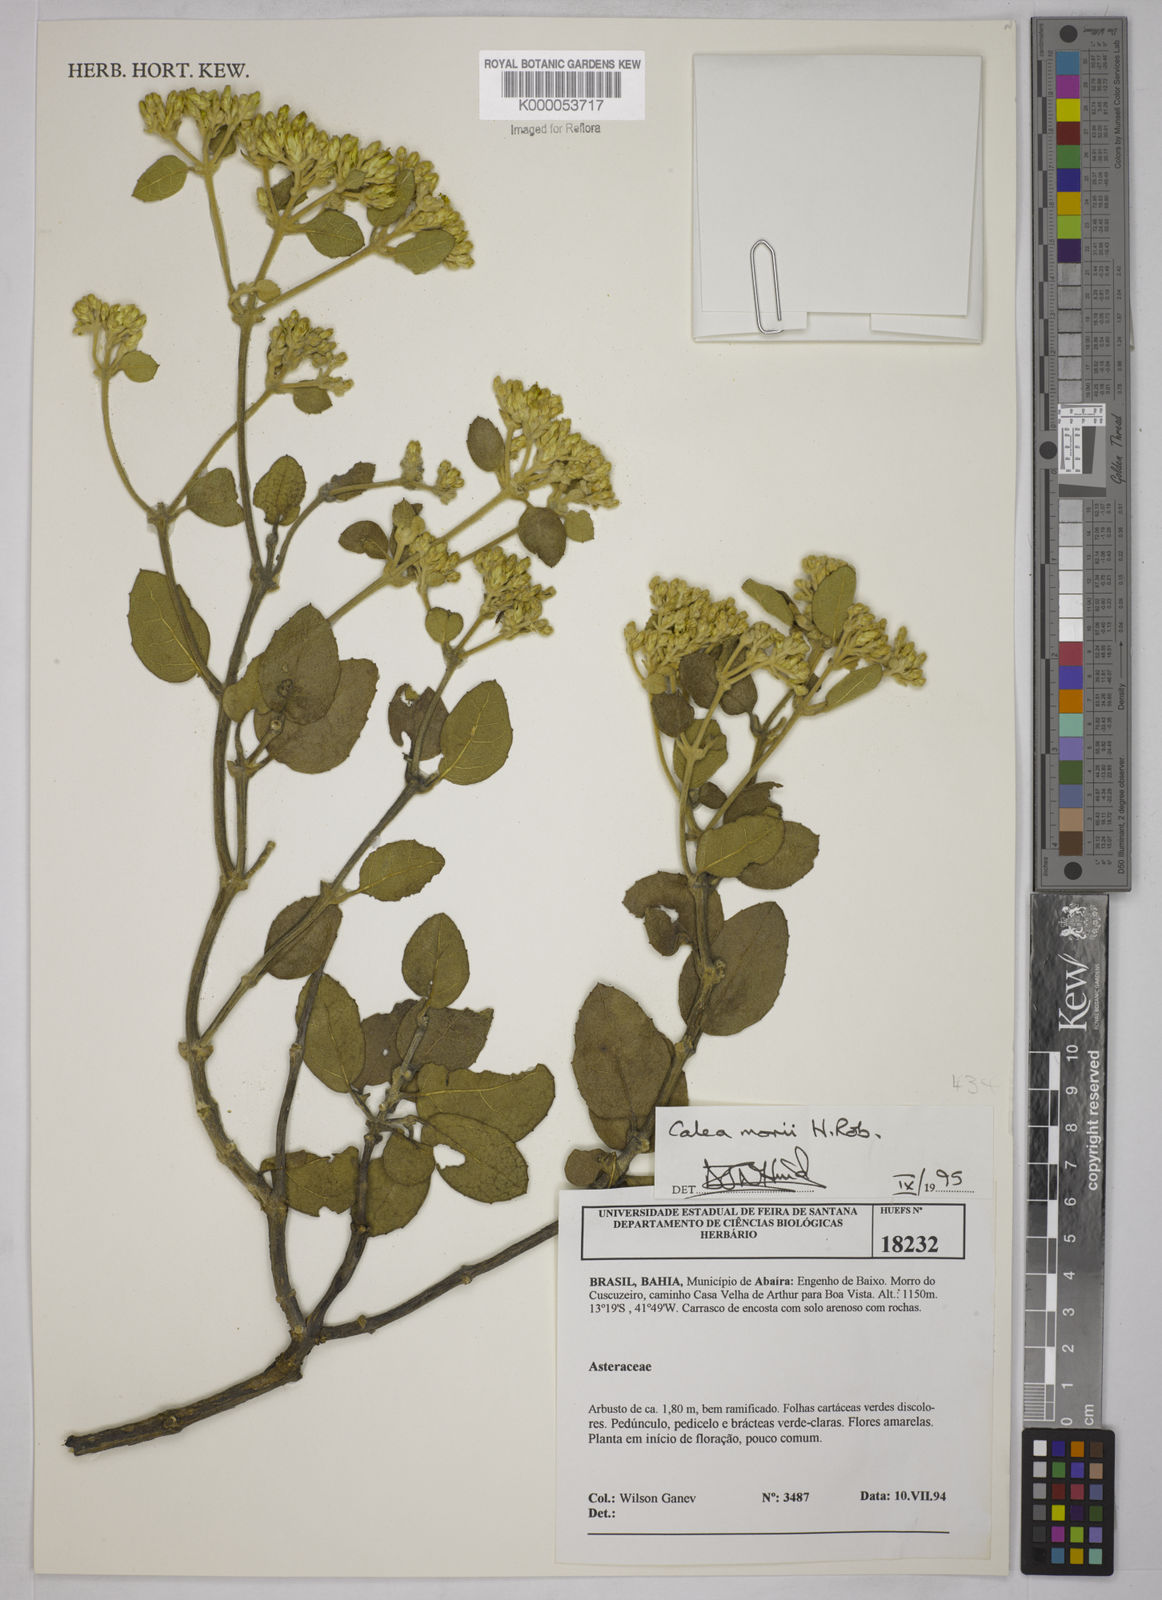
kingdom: Plantae
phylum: Tracheophyta
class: Magnoliopsida
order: Asterales
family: Asteraceae
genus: Calea
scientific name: Calea morii
